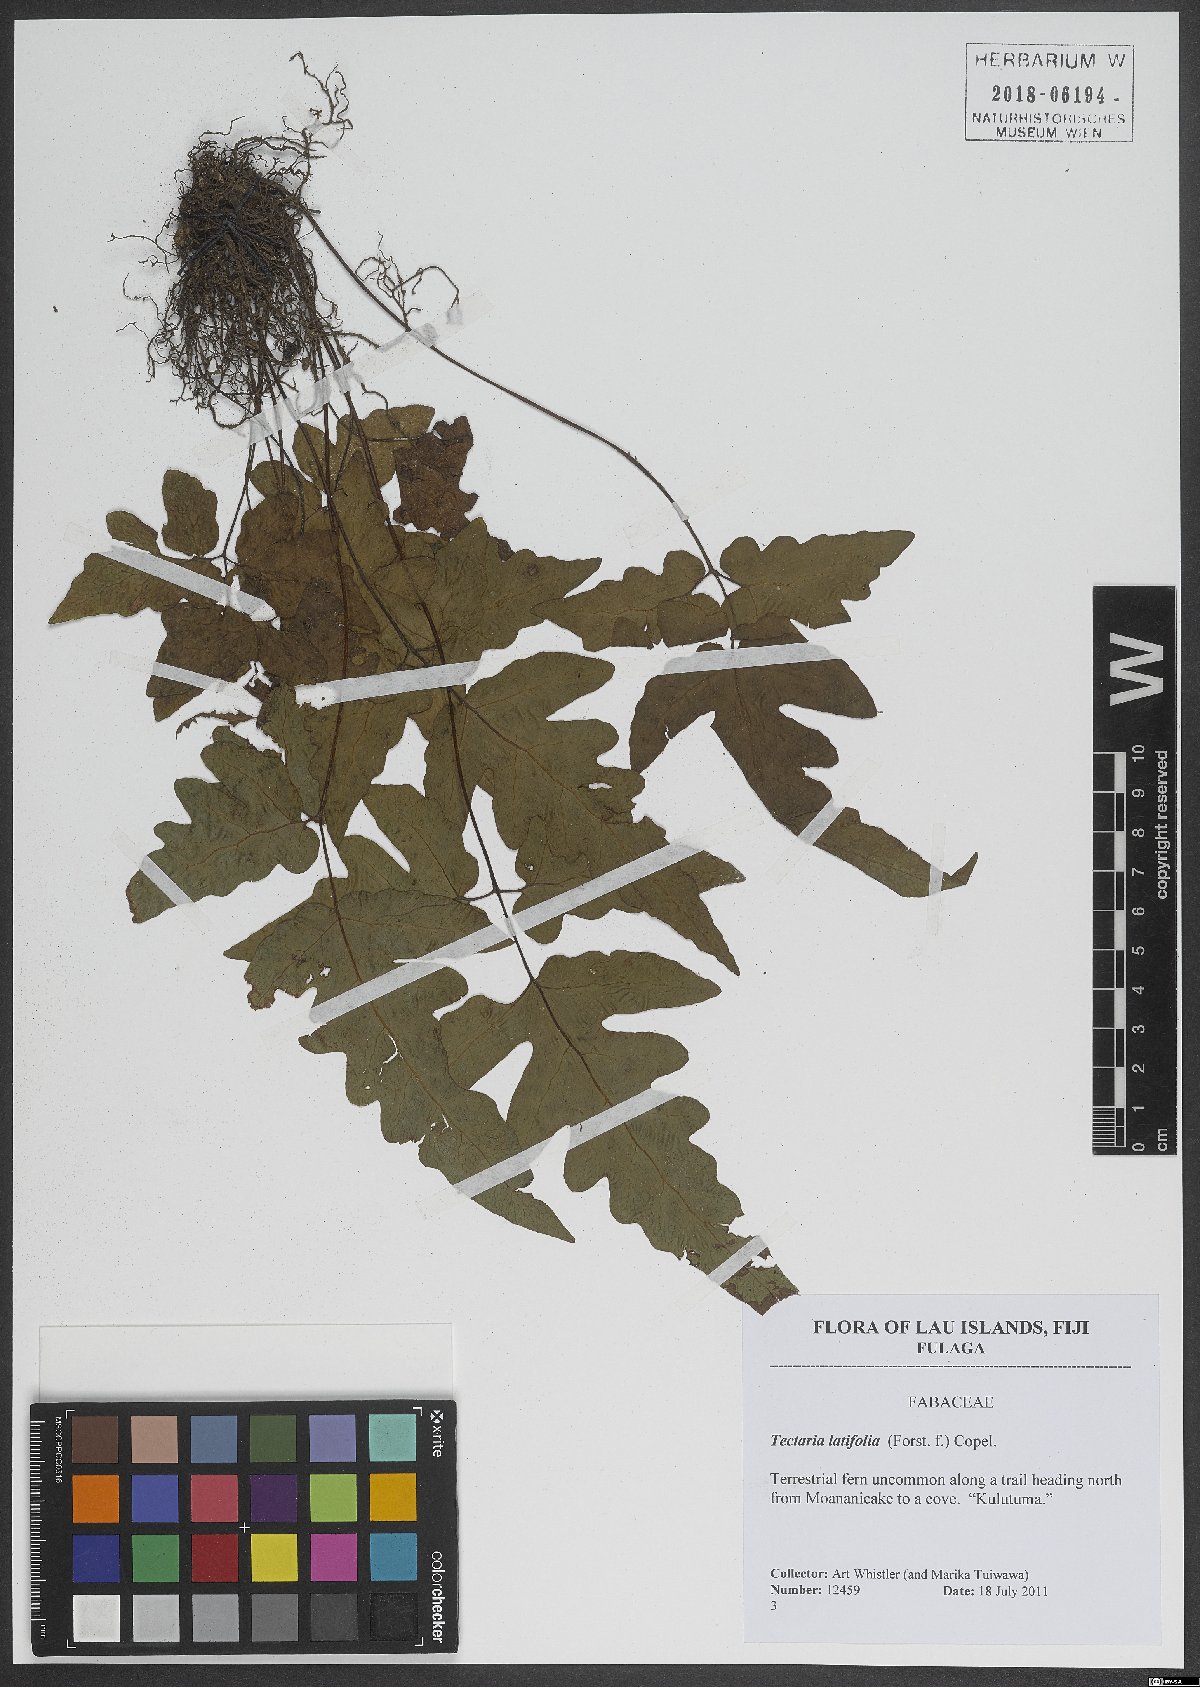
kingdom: Plantae
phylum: Tracheophyta
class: Polypodiopsida
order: Polypodiales
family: Tectariaceae
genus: Tectaria
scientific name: Tectaria latifolia
